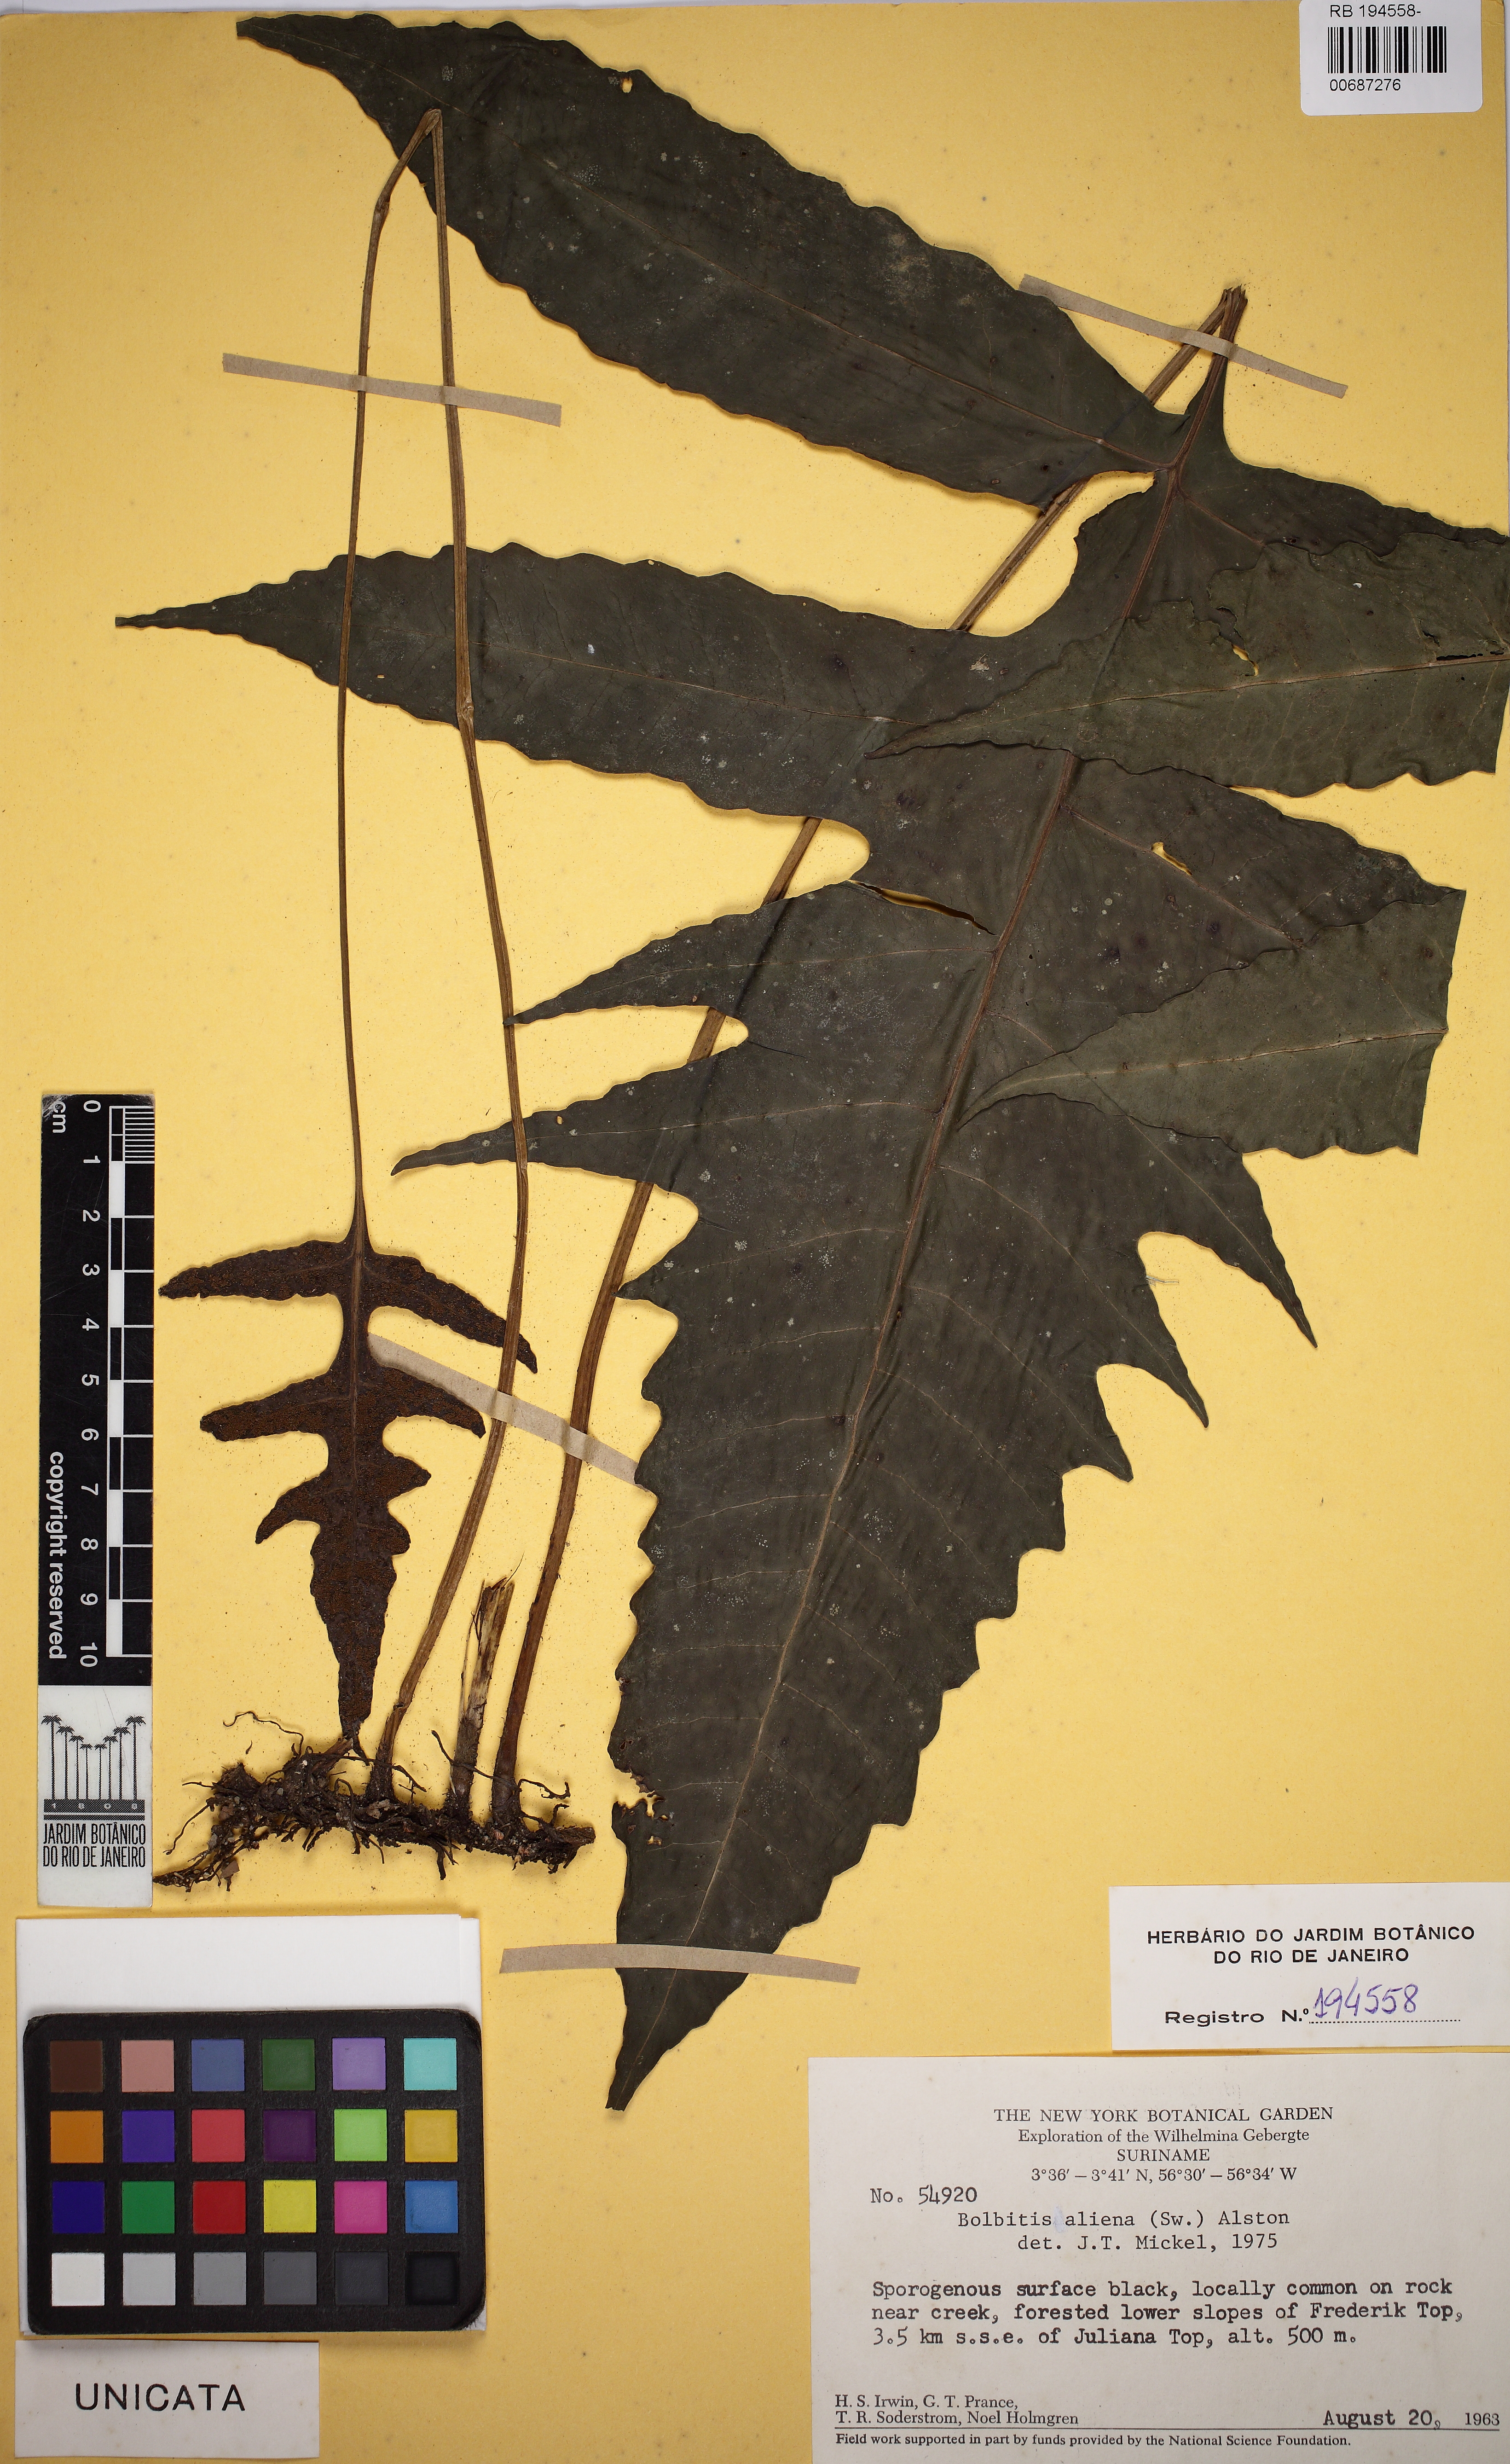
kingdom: Plantae
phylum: Tracheophyta
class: Polypodiopsida
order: Polypodiales
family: Dryopteridaceae
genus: Bolbitis
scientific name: Bolbitis aliena
